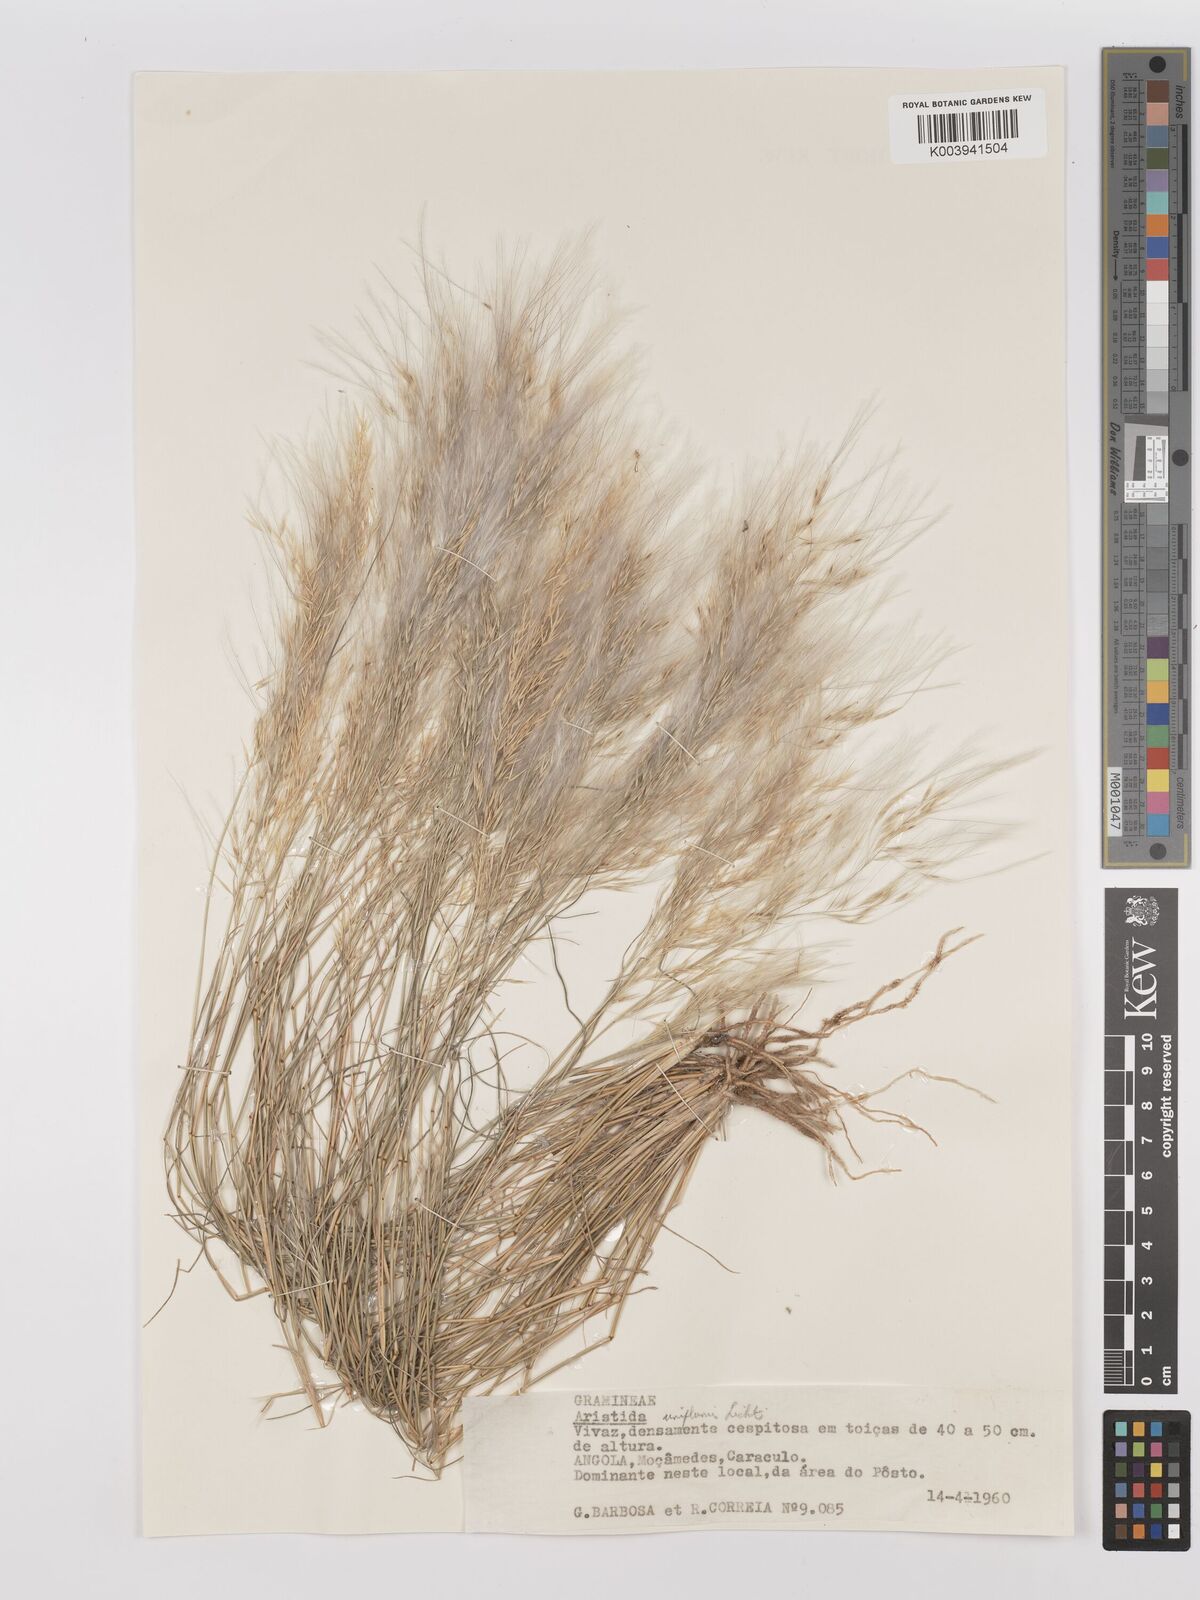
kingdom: Plantae
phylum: Tracheophyta
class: Liliopsida
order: Poales
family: Poaceae
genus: Stipagrostis
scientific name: Stipagrostis uniplumis
